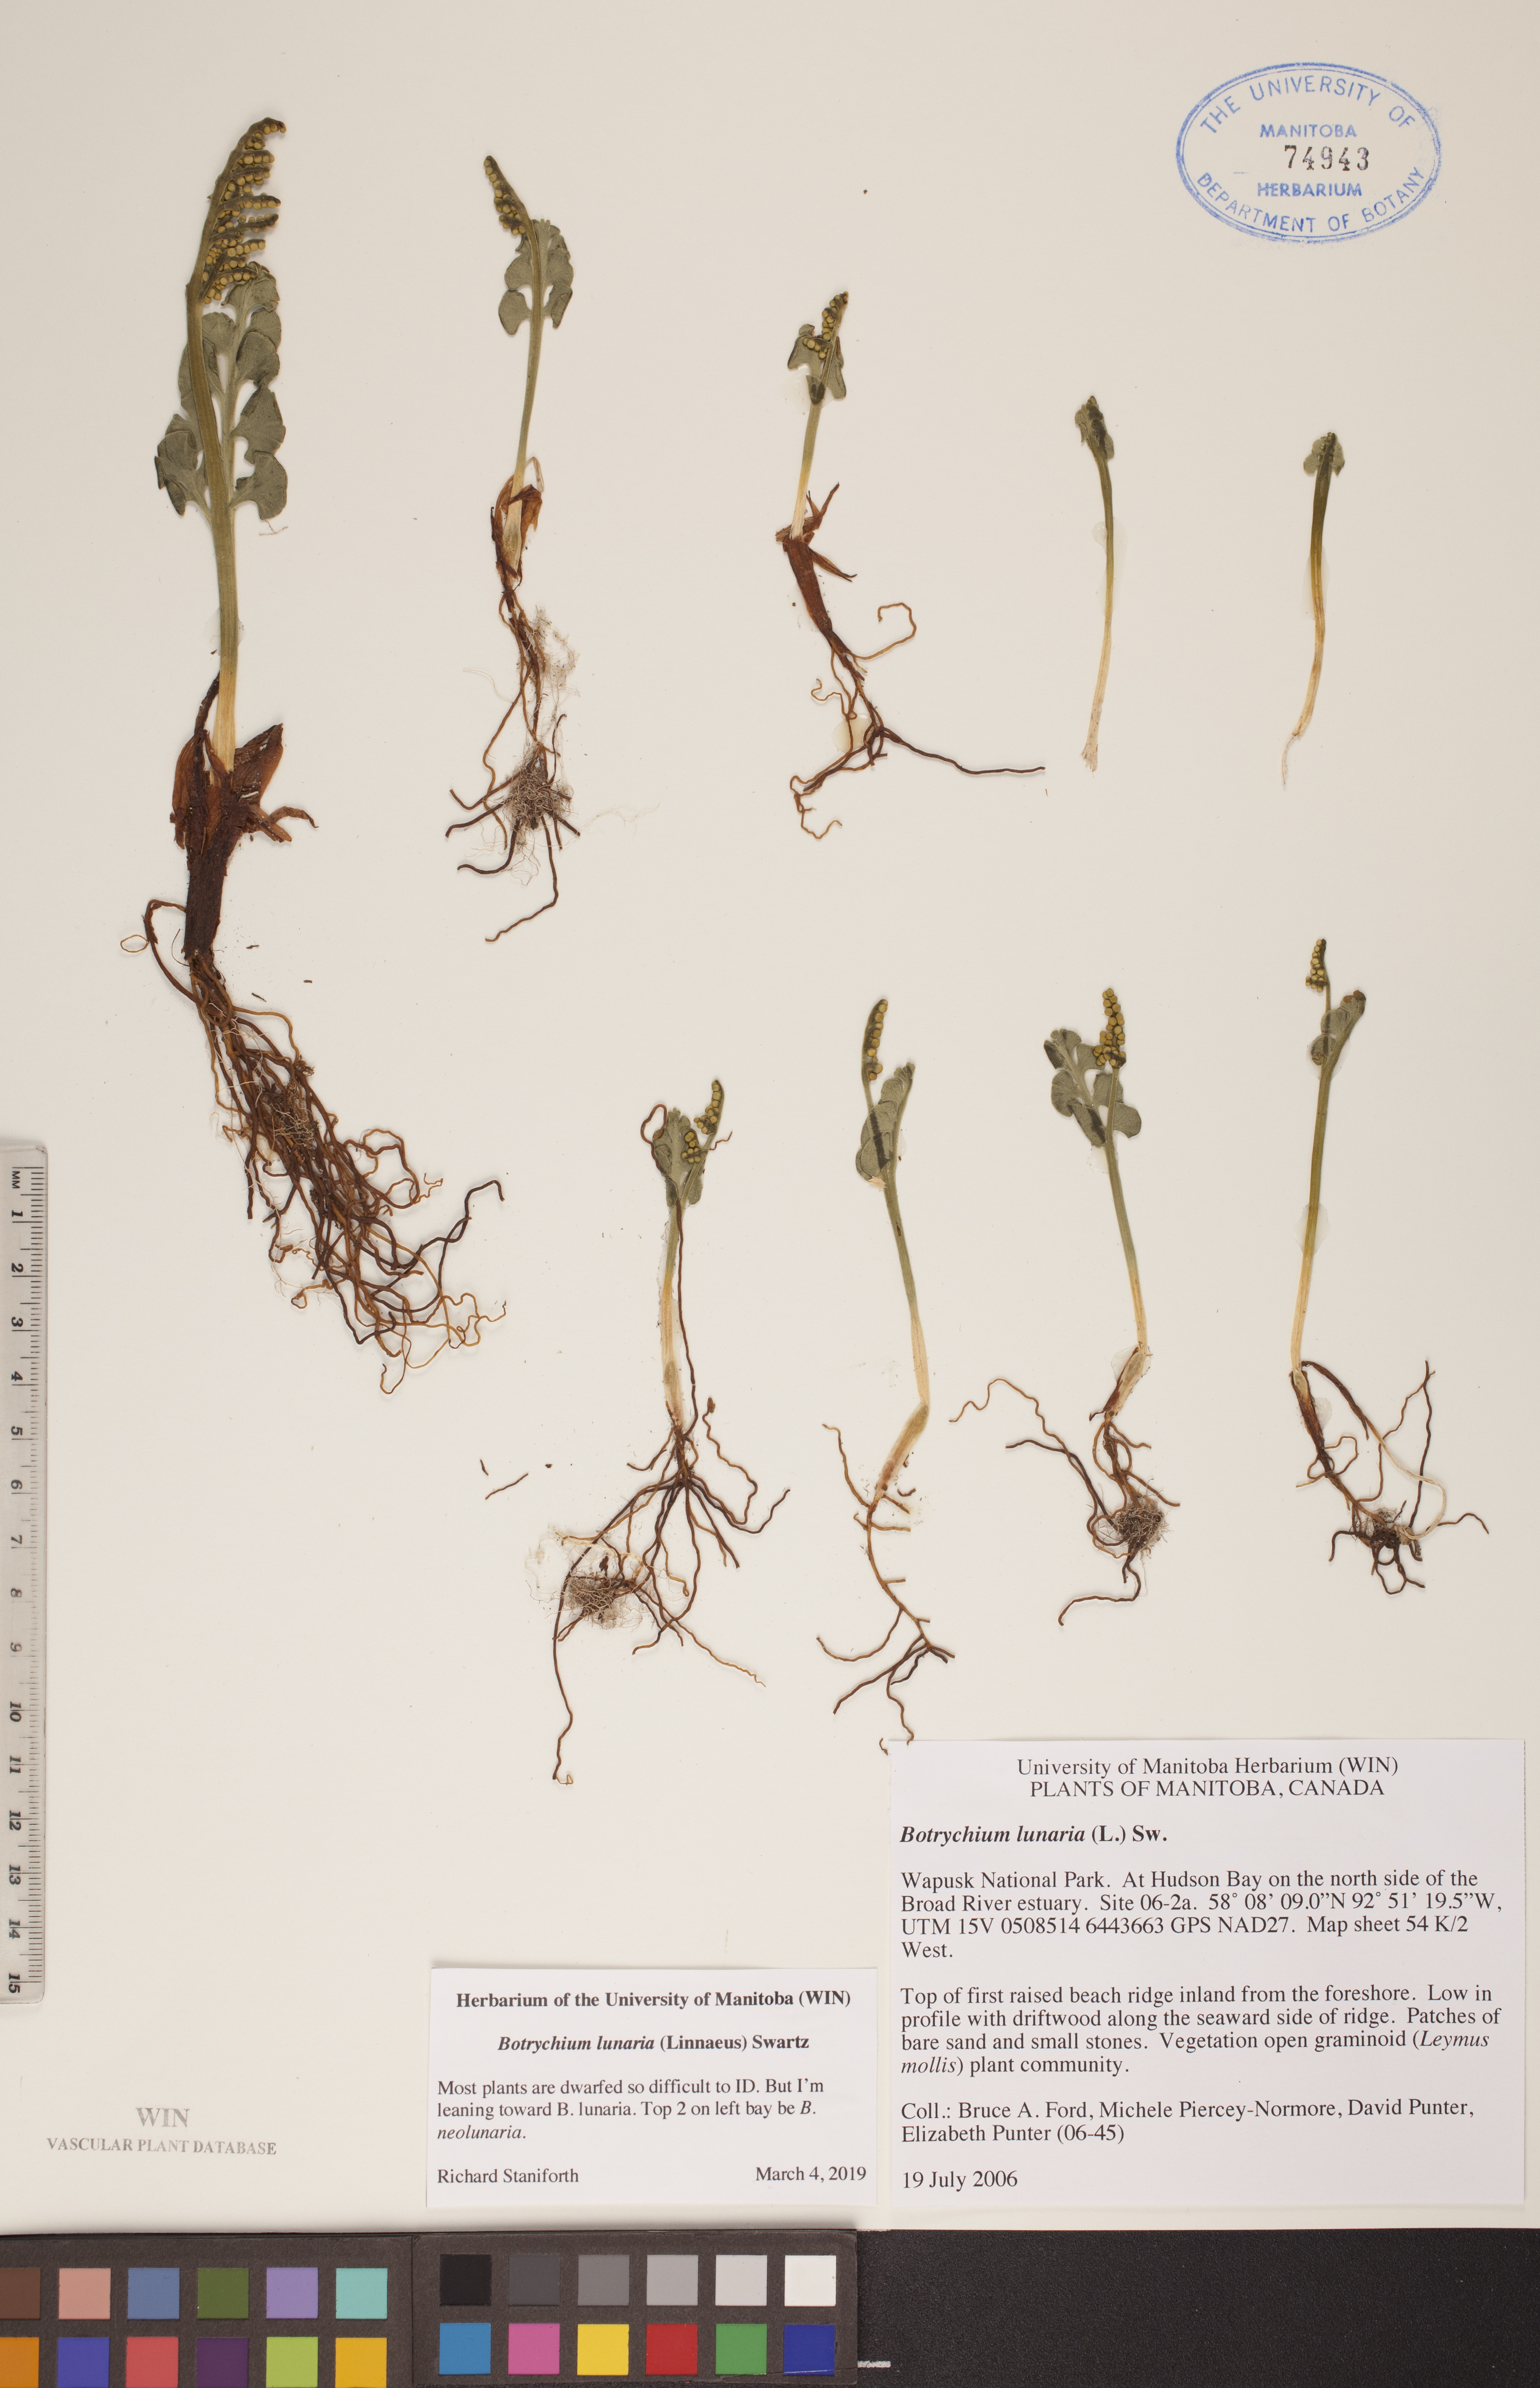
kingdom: Plantae
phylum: Tracheophyta
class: Polypodiopsida
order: Ophioglossales
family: Ophioglossaceae
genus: Botrychium
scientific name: Botrychium lunaria
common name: Moonwort
